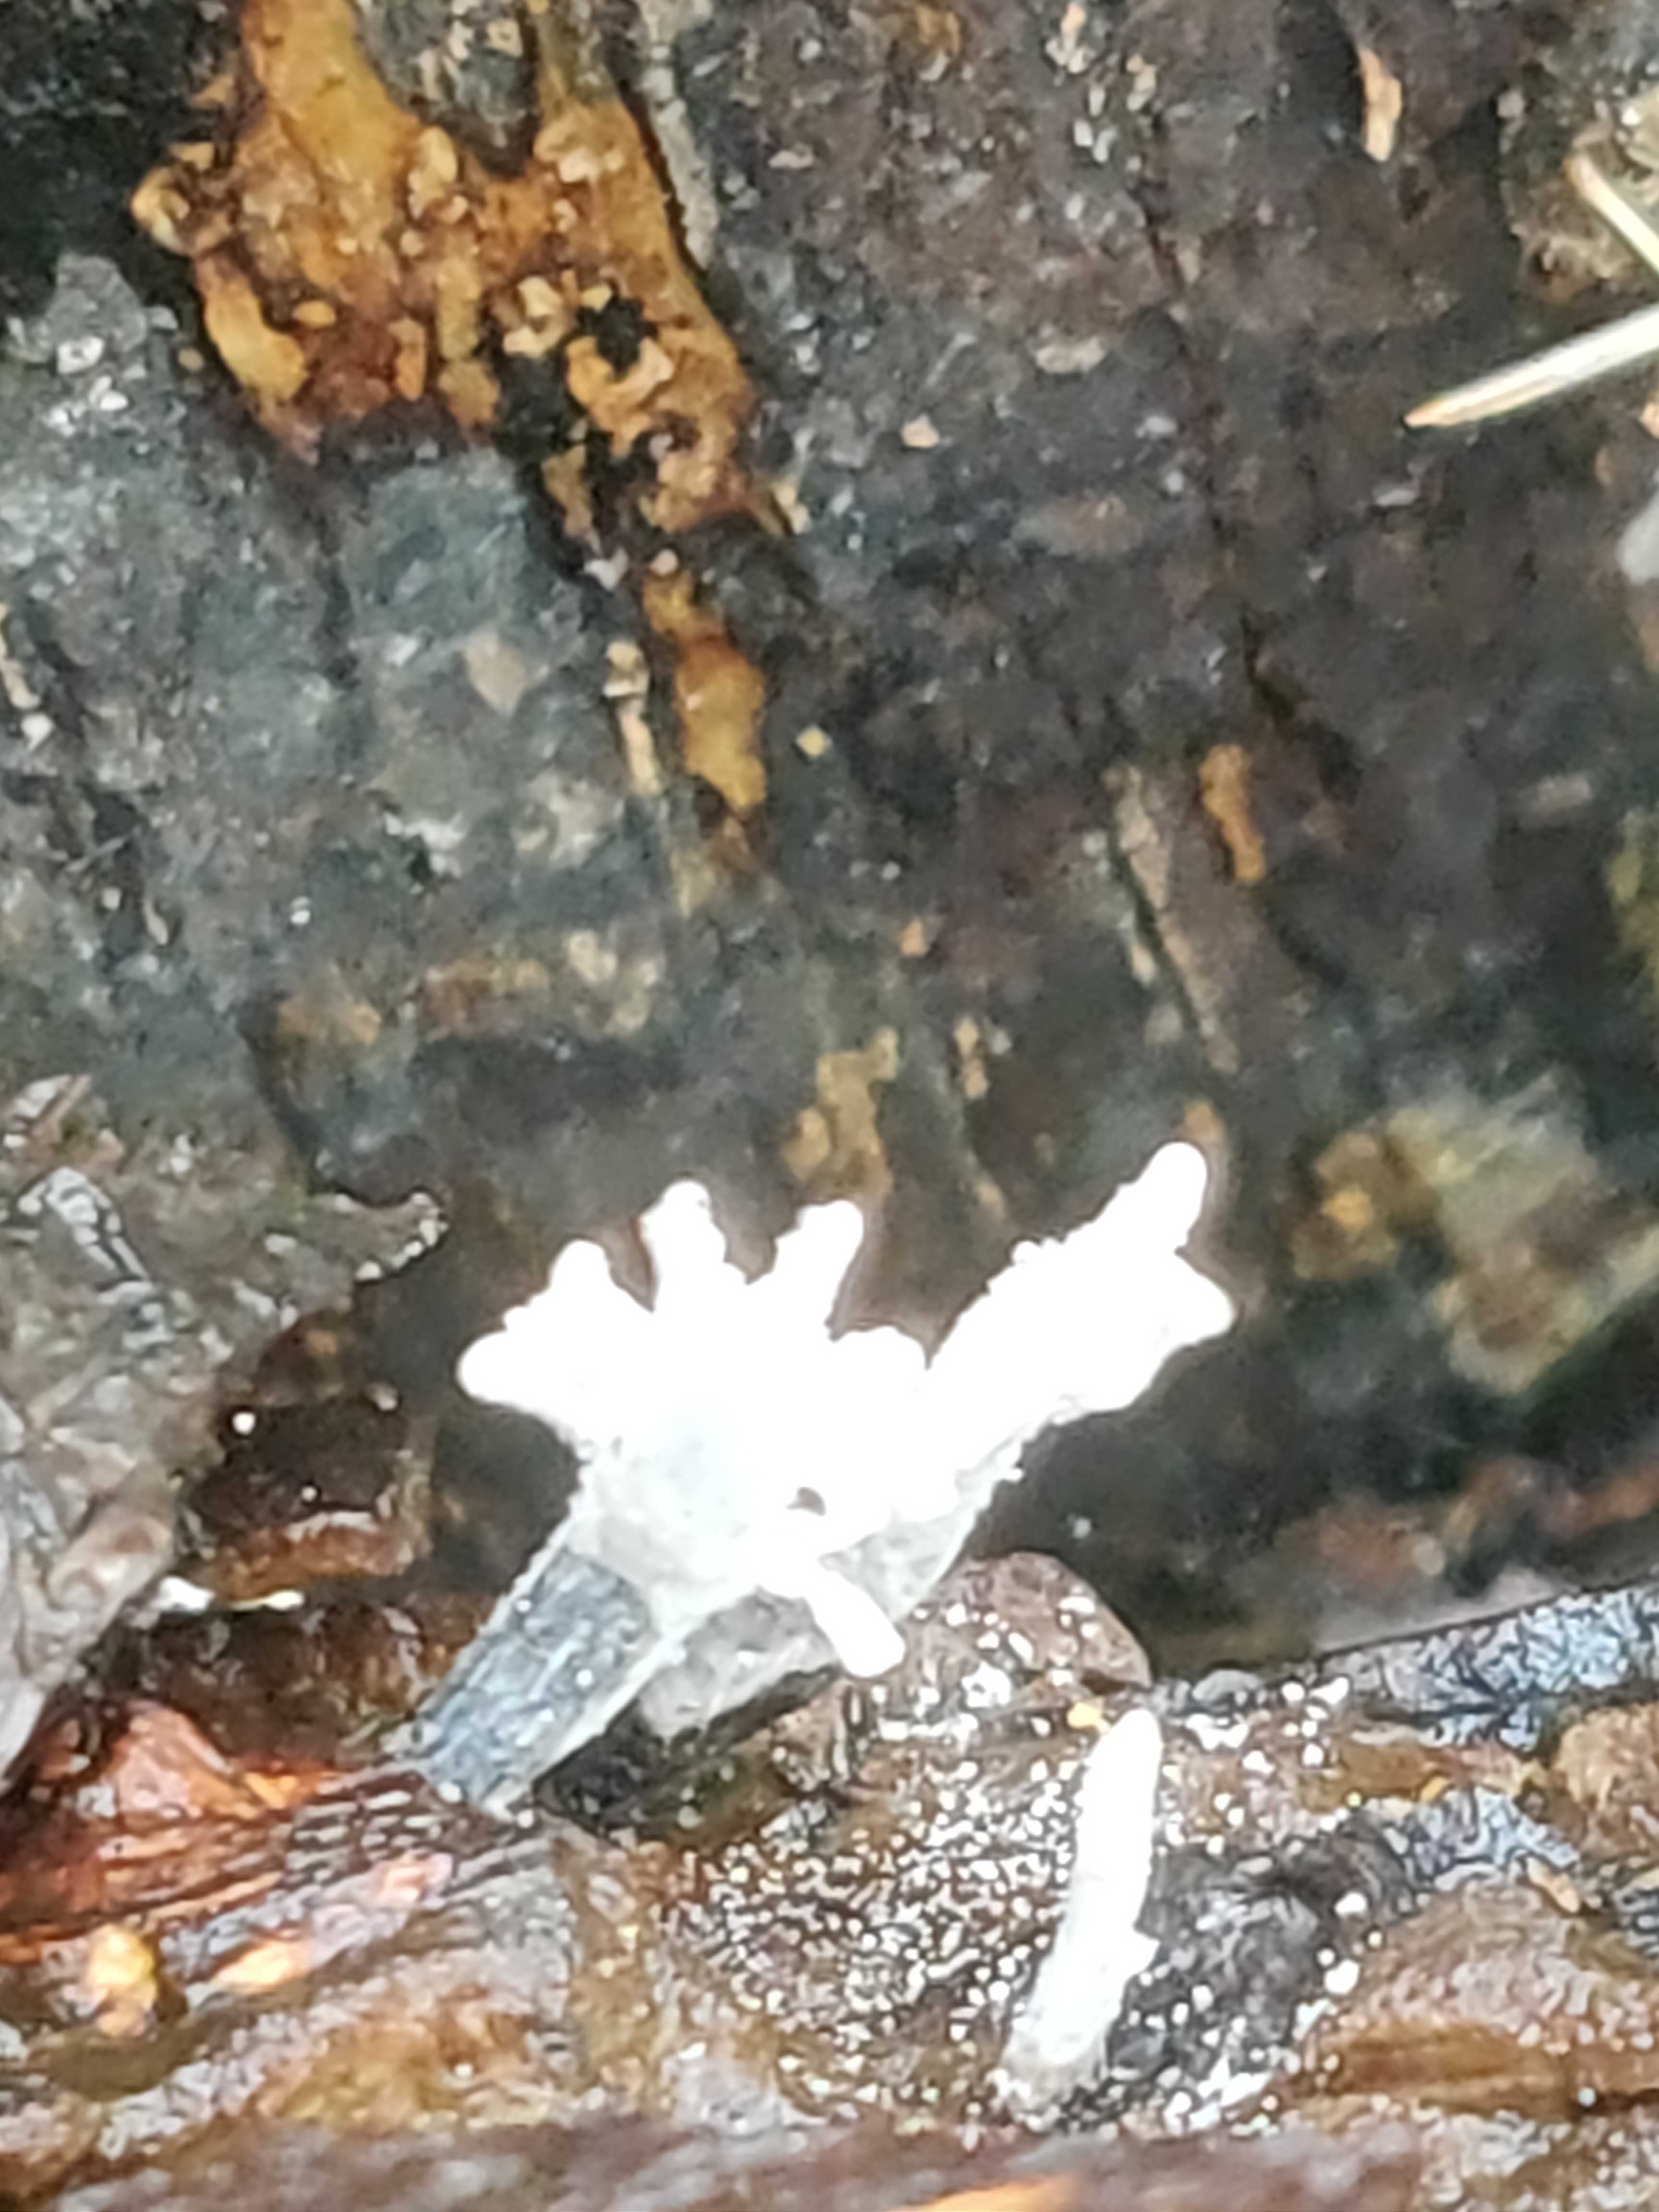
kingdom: Fungi
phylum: Ascomycota
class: Sordariomycetes
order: Xylariales
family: Xylariaceae
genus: Xylaria
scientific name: Xylaria hypoxylon
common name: grenet stødsvamp
